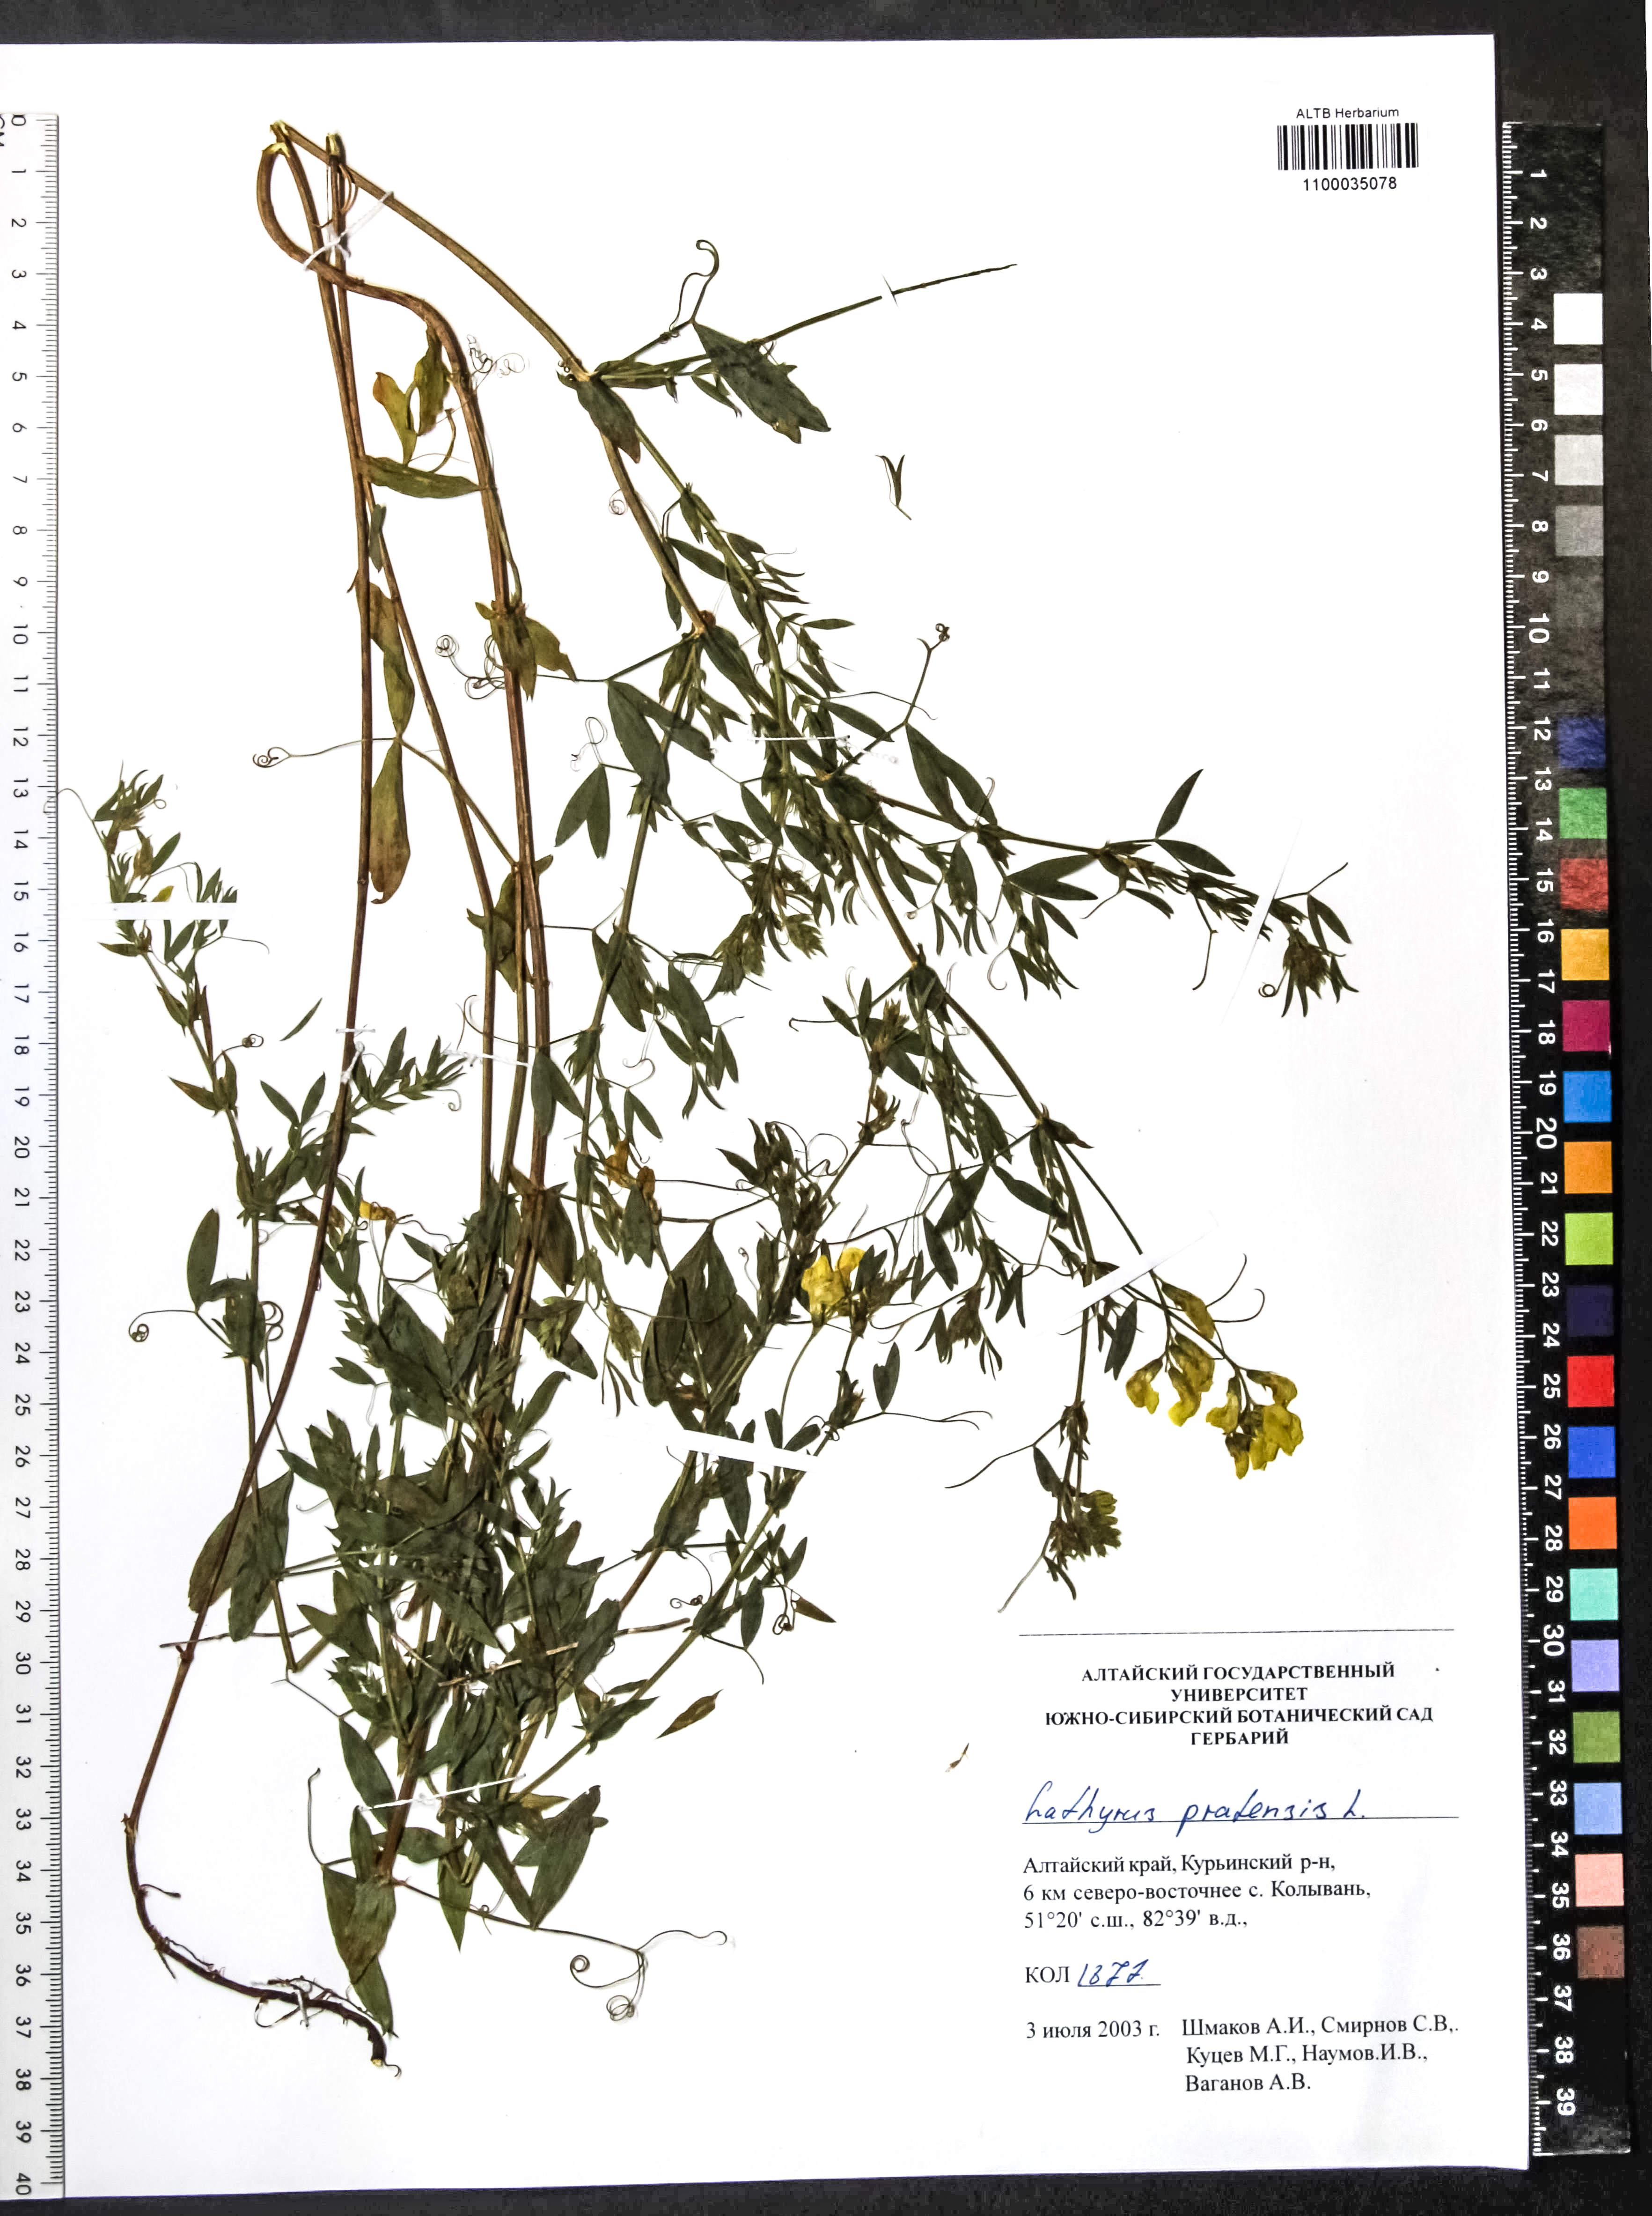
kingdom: Plantae
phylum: Tracheophyta
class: Magnoliopsida
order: Fabales
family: Fabaceae
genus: Lathyrus
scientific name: Lathyrus pratensis
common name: Meadow vetchling
